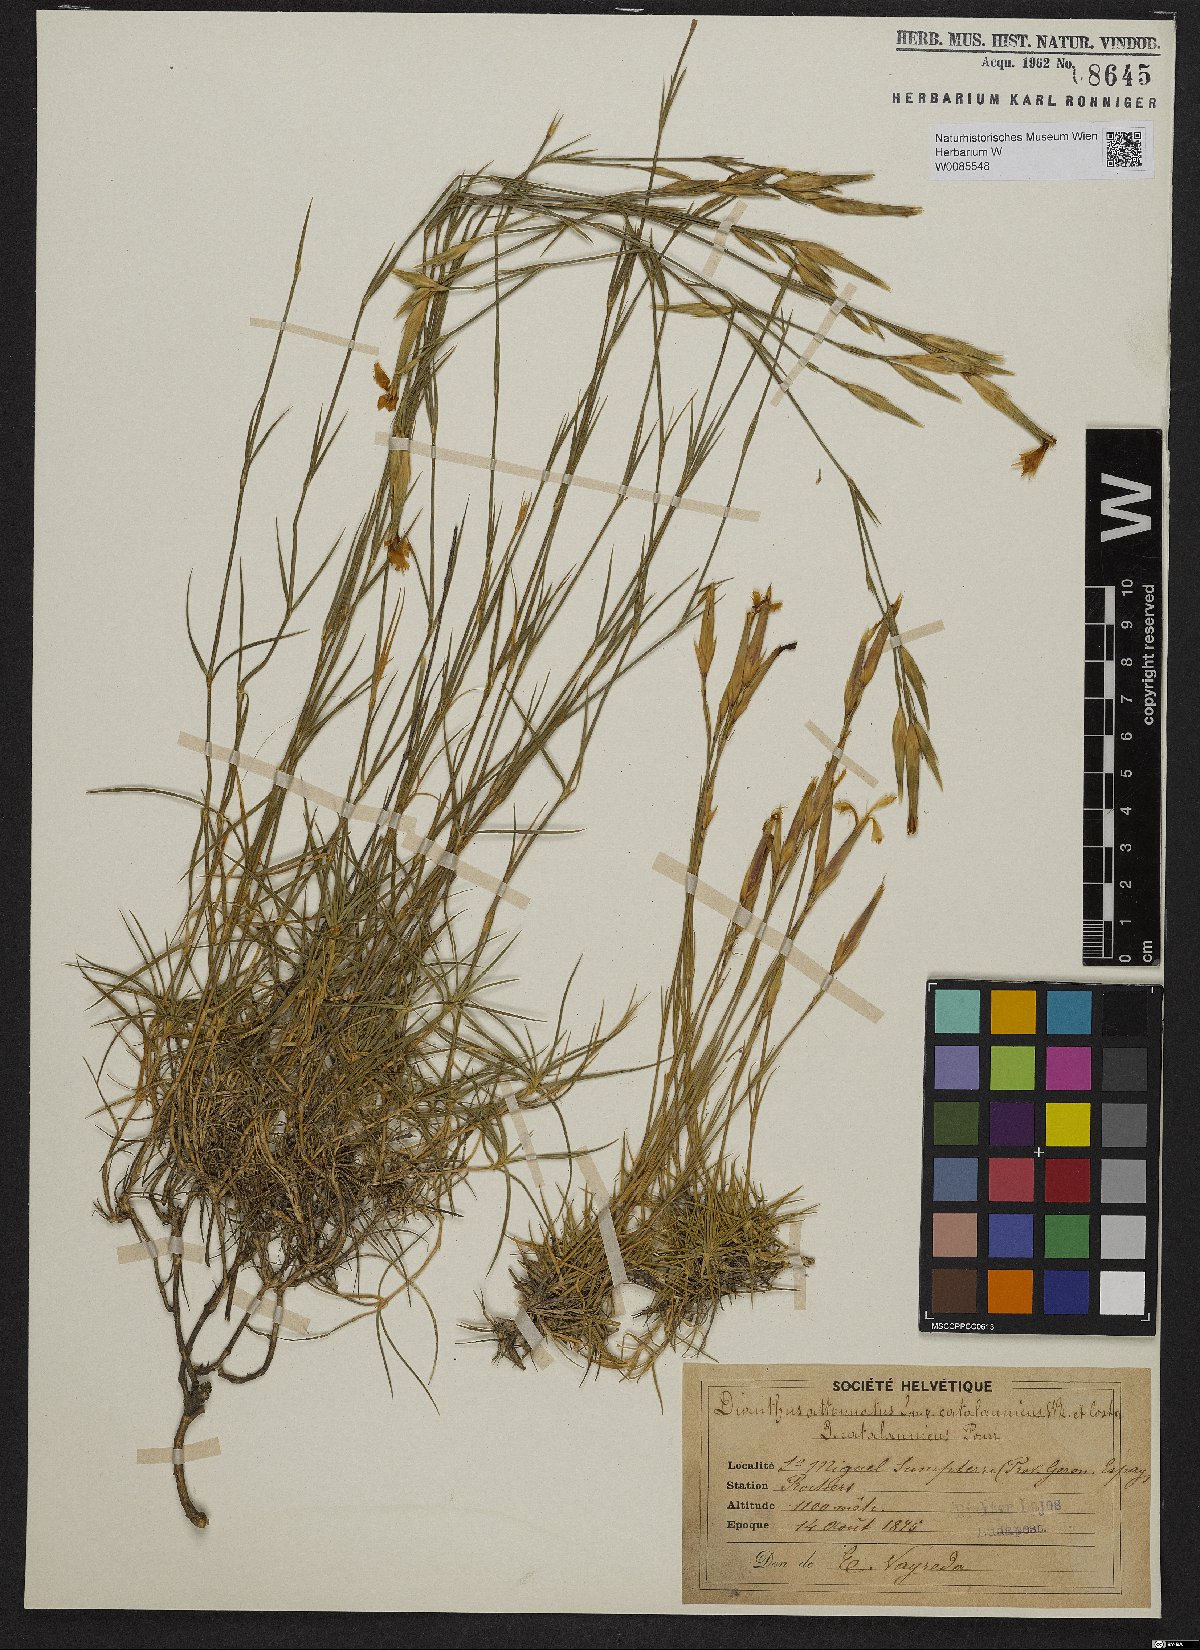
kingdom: Plantae
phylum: Tracheophyta
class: Magnoliopsida
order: Caryophyllales
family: Caryophyllaceae
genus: Dianthus
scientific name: Dianthus pyrenaicus
